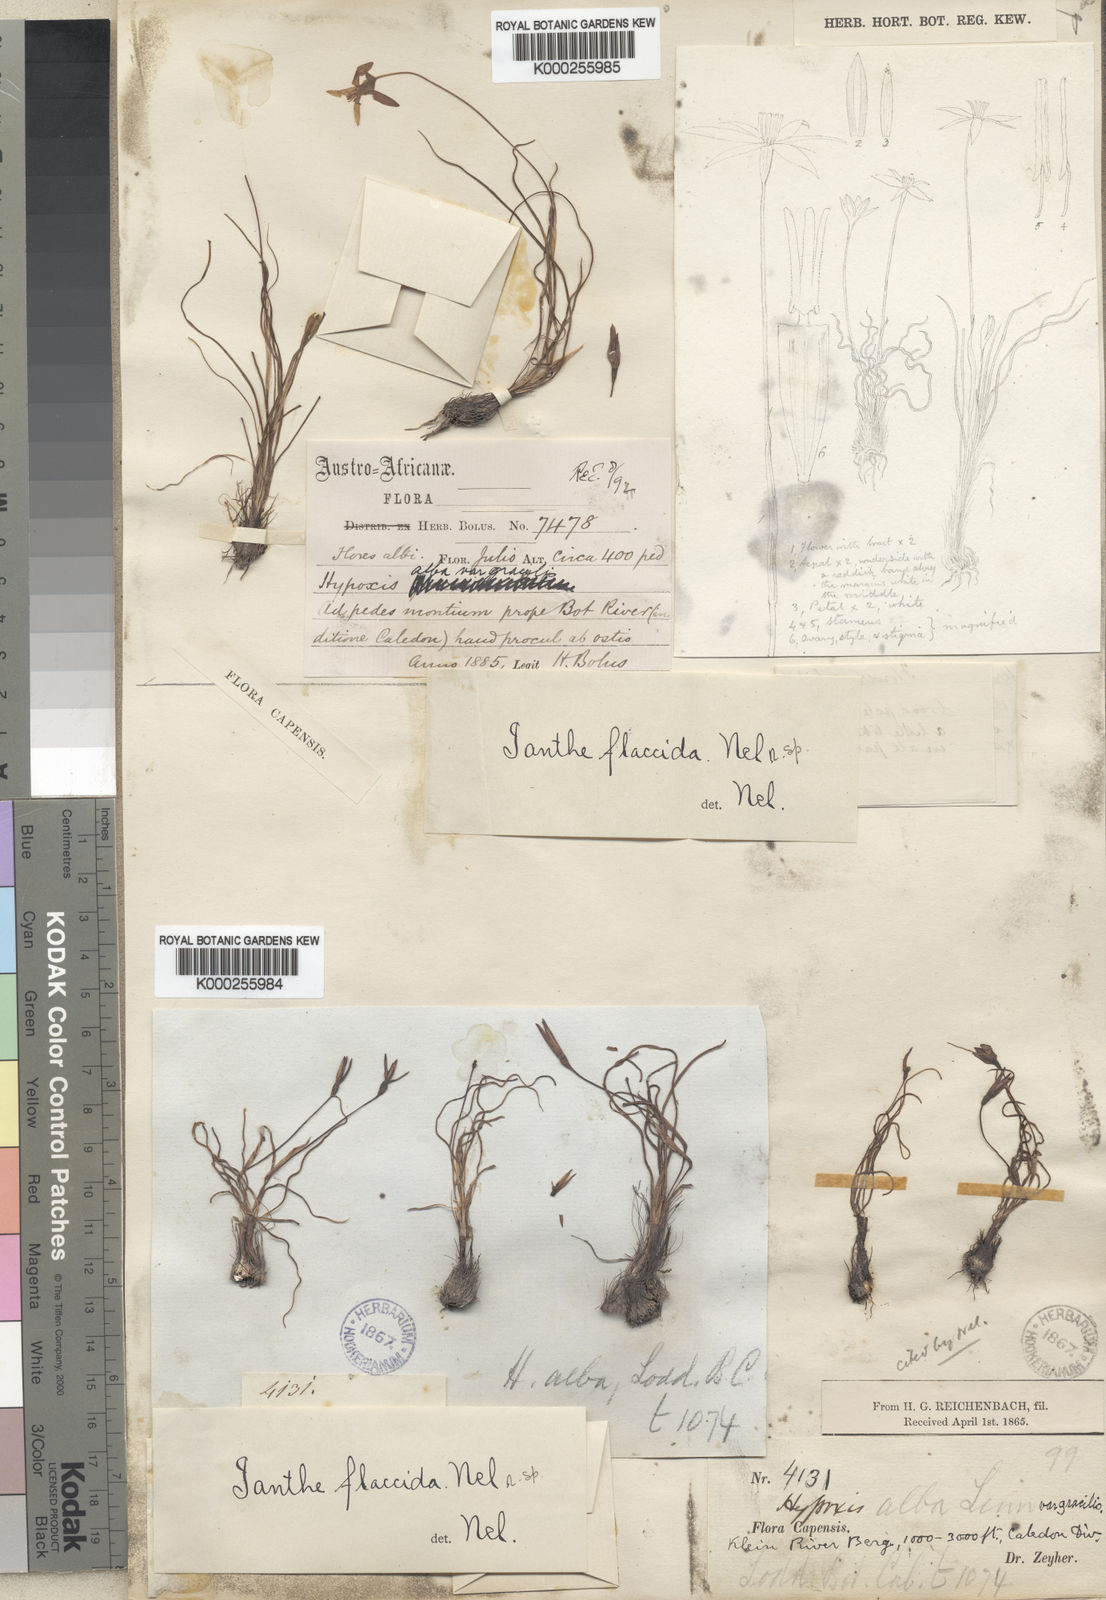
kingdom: Plantae
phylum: Tracheophyta
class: Liliopsida
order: Asparagales
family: Hypoxidaceae
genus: Pauridia
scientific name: Pauridia flaccida
